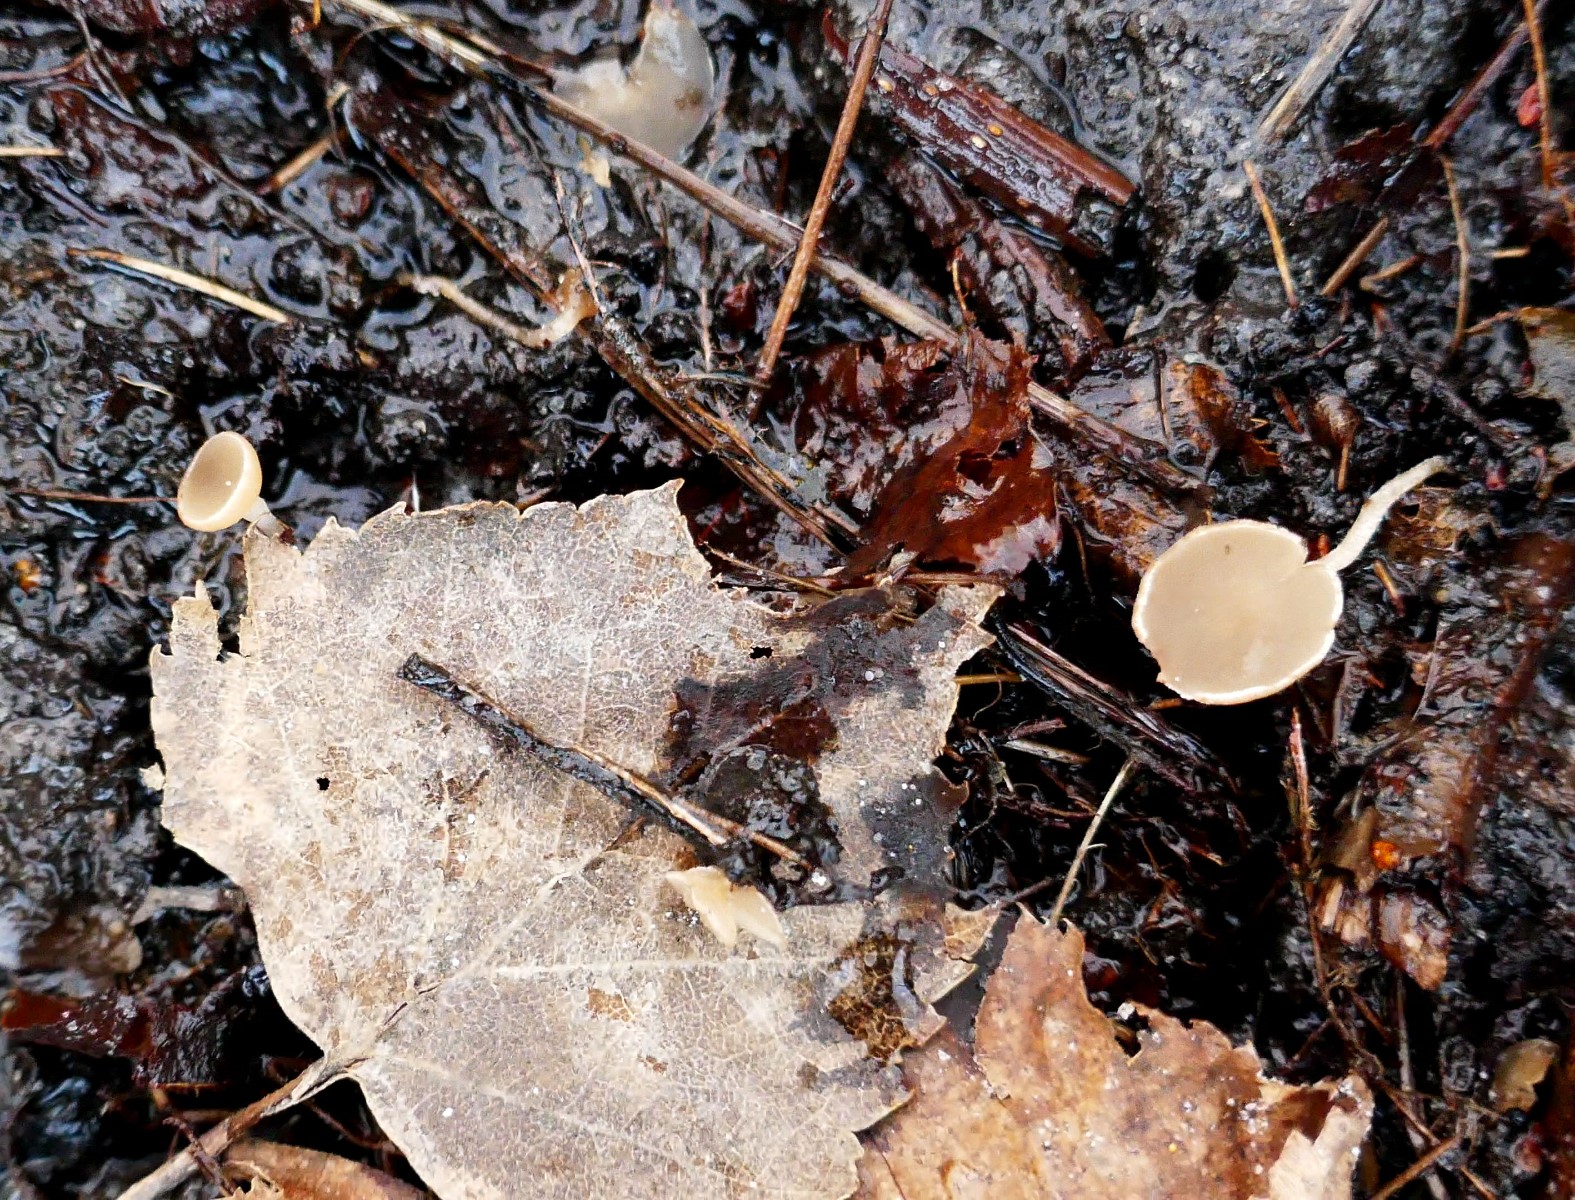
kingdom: Fungi
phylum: Ascomycota
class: Leotiomycetes
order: Helotiales
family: Sclerotiniaceae
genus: Ciboria
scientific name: Ciboria amentacea
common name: ellerakle-knoldskive
